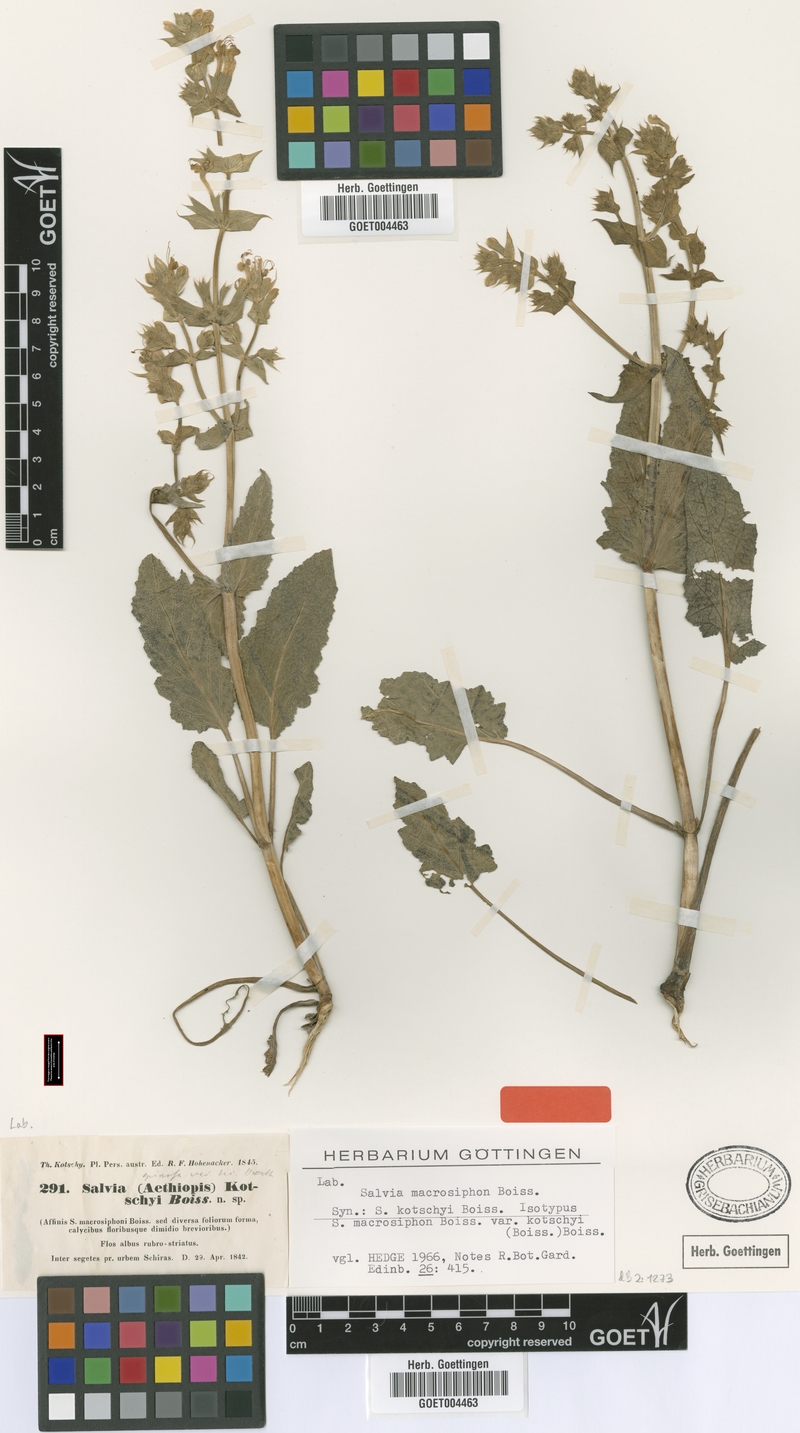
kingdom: Plantae
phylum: Tracheophyta
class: Magnoliopsida
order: Lamiales
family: Lamiaceae
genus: Salvia
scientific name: Salvia macrosiphon
